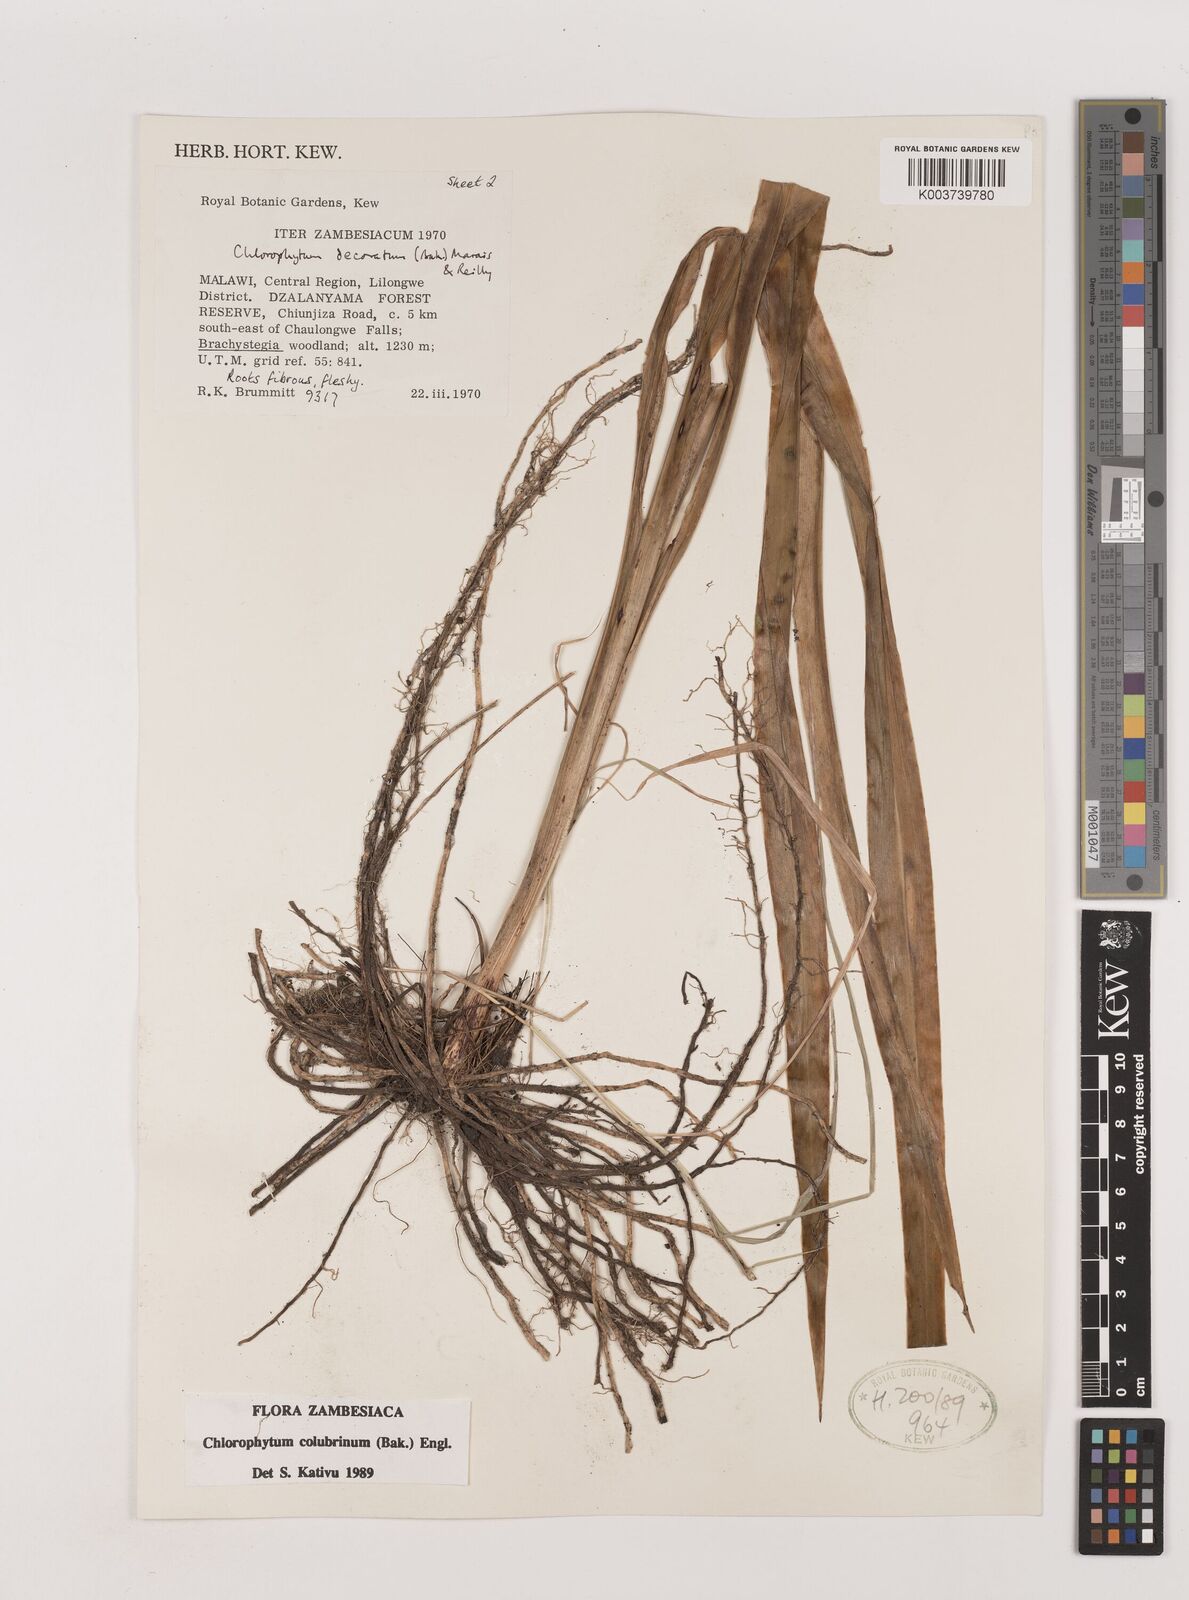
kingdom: Plantae
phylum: Tracheophyta
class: Liliopsida
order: Asparagales
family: Asparagaceae
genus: Chlorophytum
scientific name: Chlorophytum colubrinum
